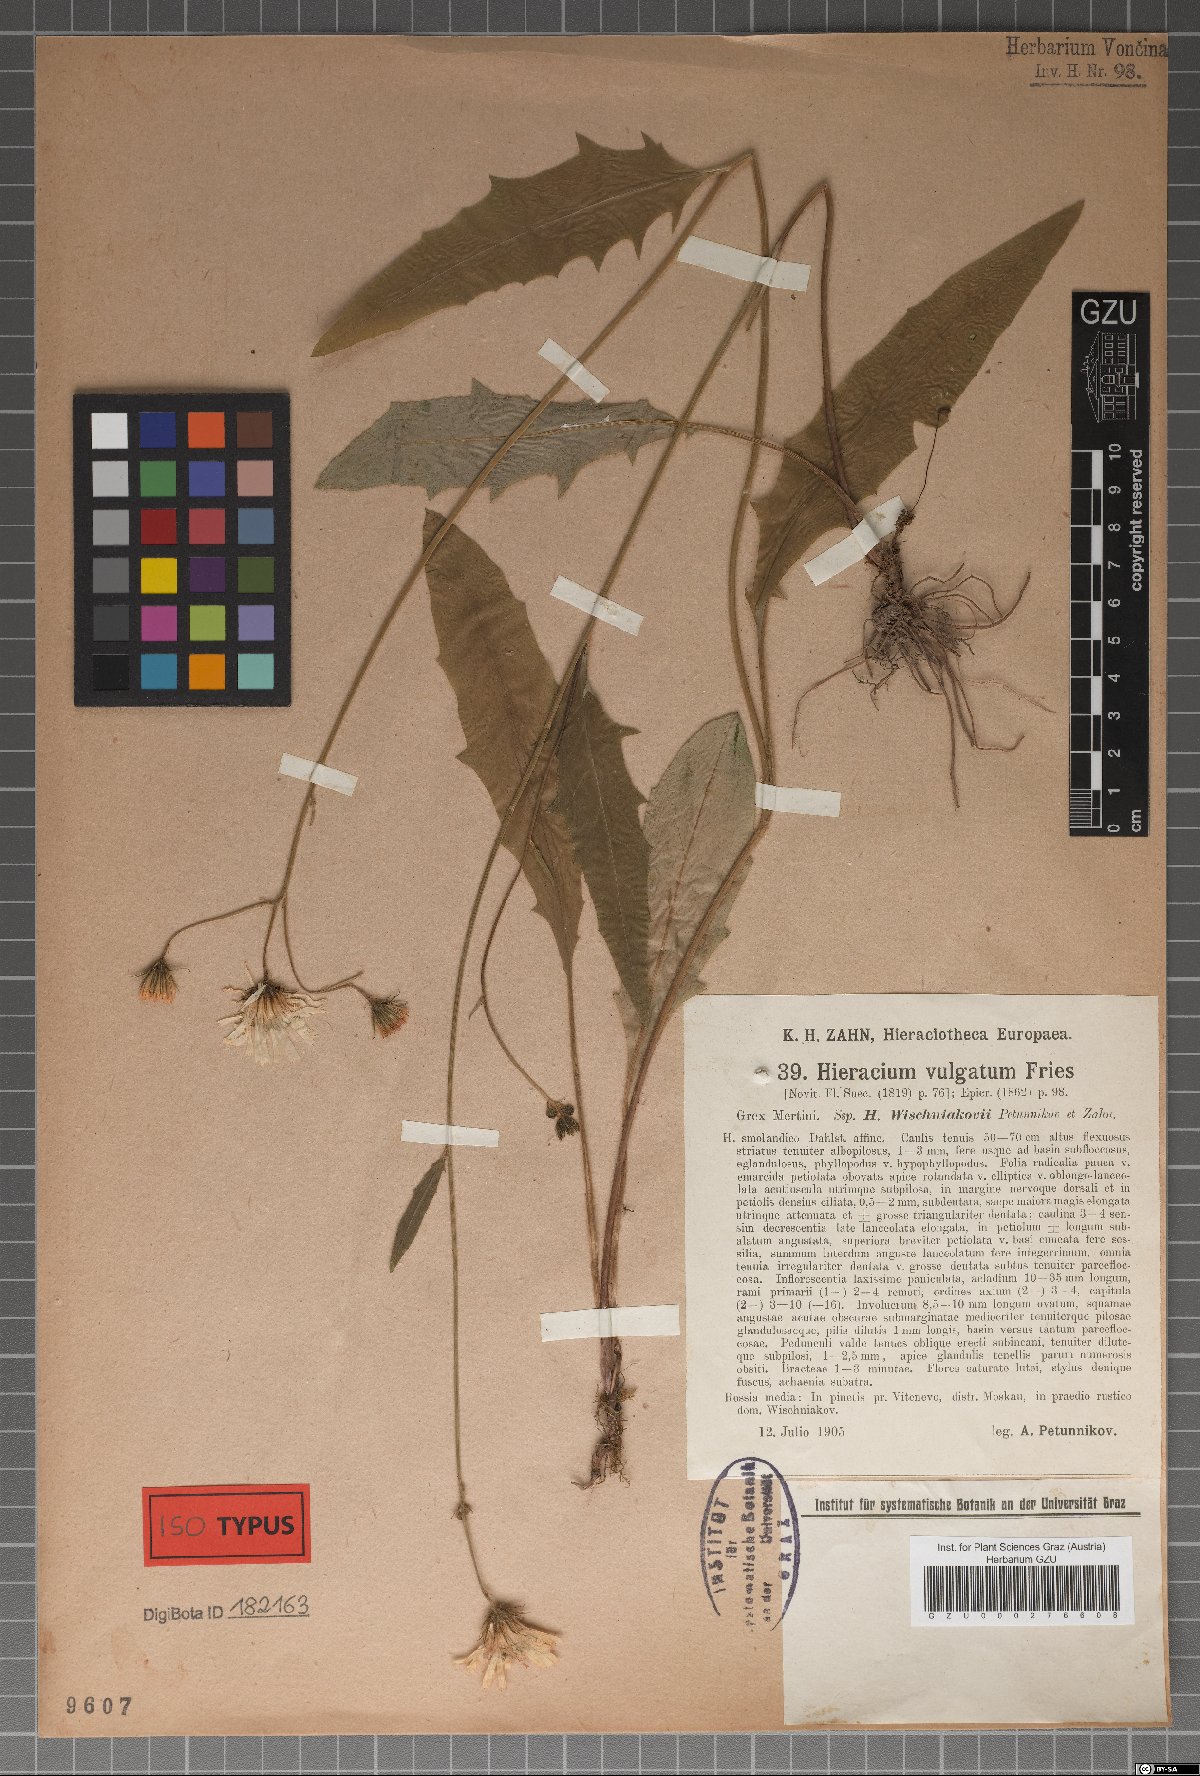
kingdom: Plantae
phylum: Tracheophyta
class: Magnoliopsida
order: Asterales
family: Asteraceae
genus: Hieracium
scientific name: Hieracium lachenalii
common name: Common hawkweed
